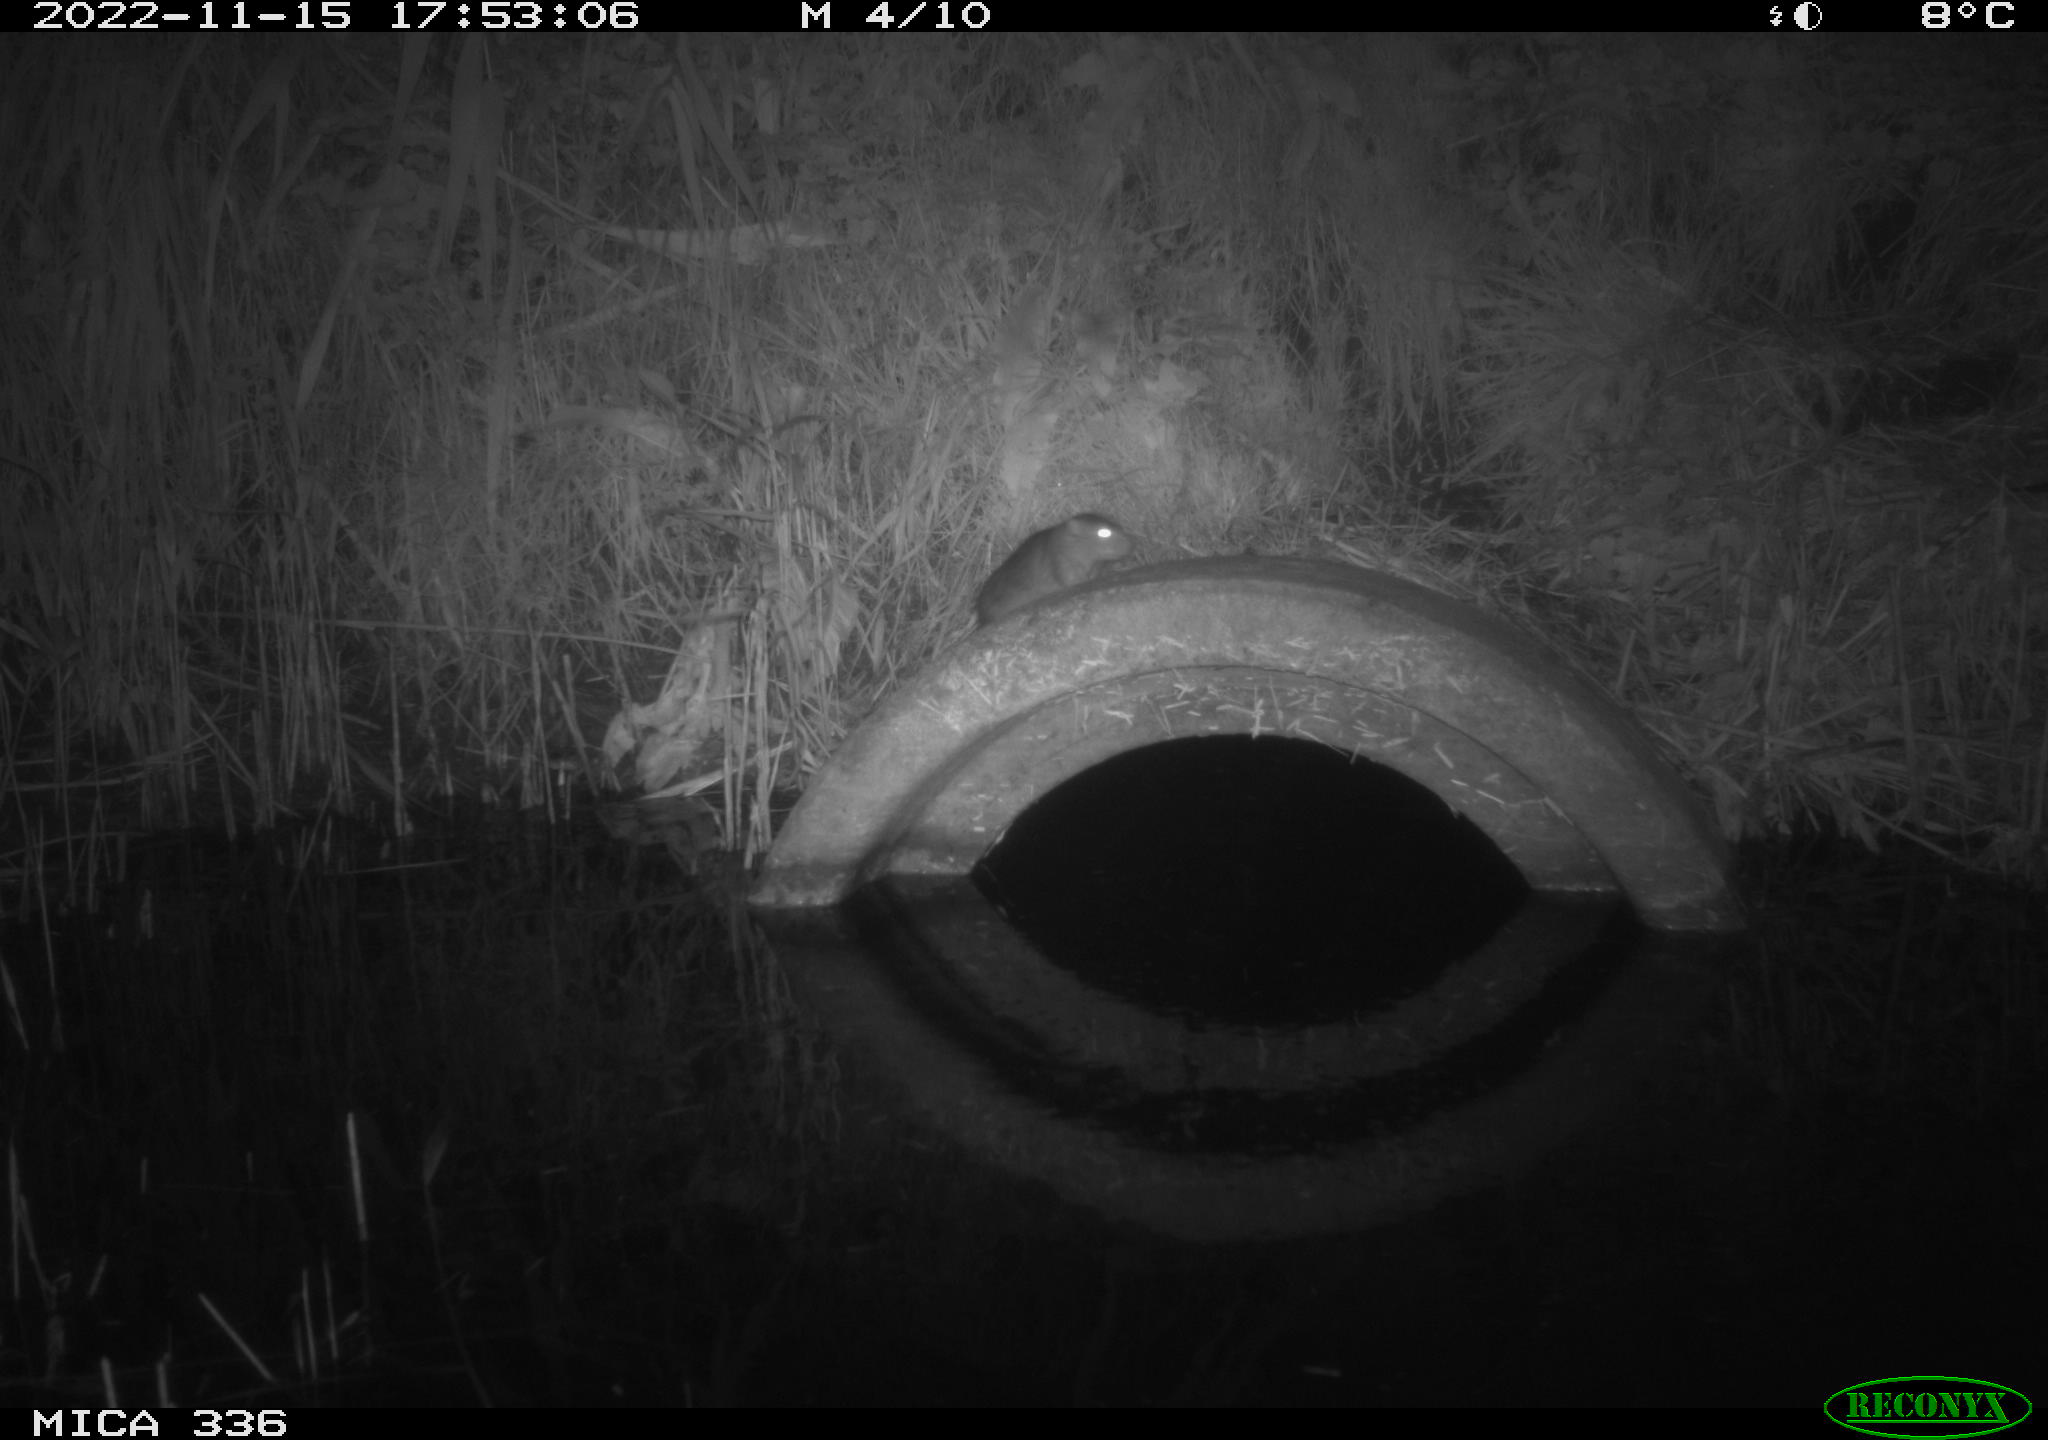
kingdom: Animalia
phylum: Chordata
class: Mammalia
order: Rodentia
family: Muridae
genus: Rattus
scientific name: Rattus norvegicus
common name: Brown rat
